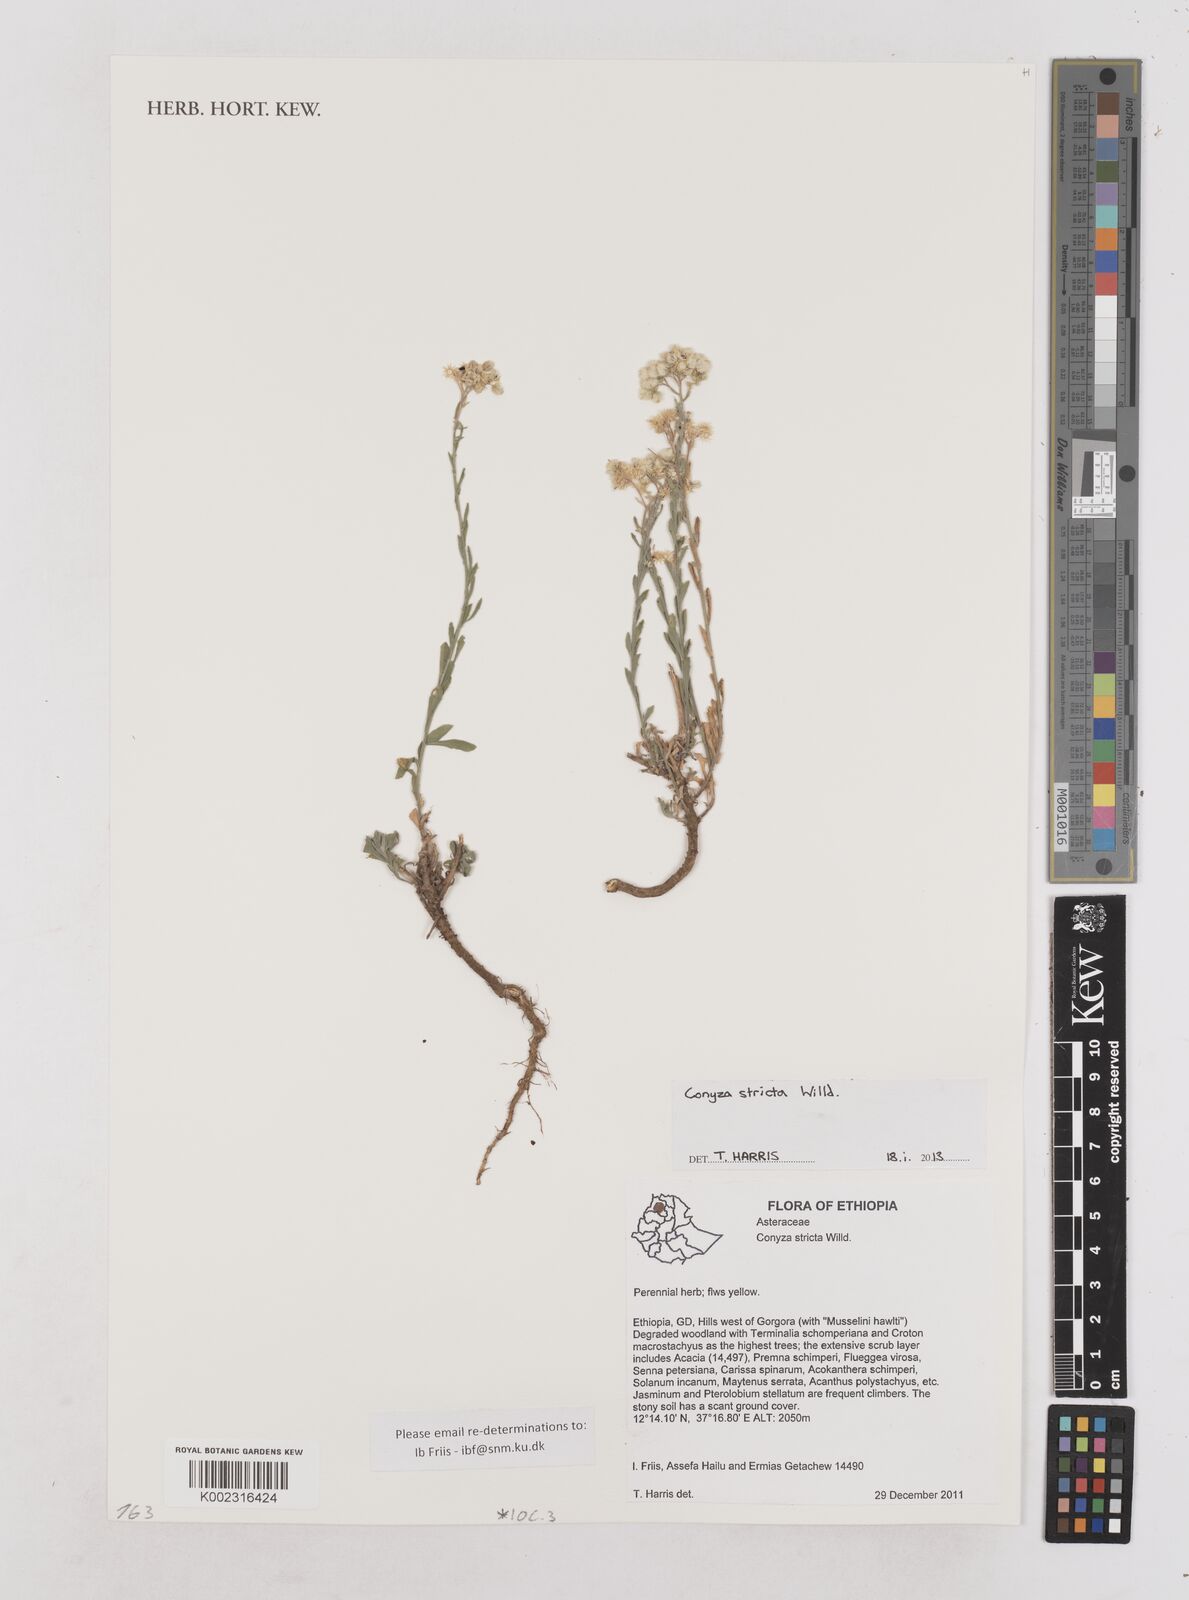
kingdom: Plantae
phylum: Tracheophyta
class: Magnoliopsida
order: Asterales
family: Asteraceae
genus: Nidorella
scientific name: Nidorella triloba
